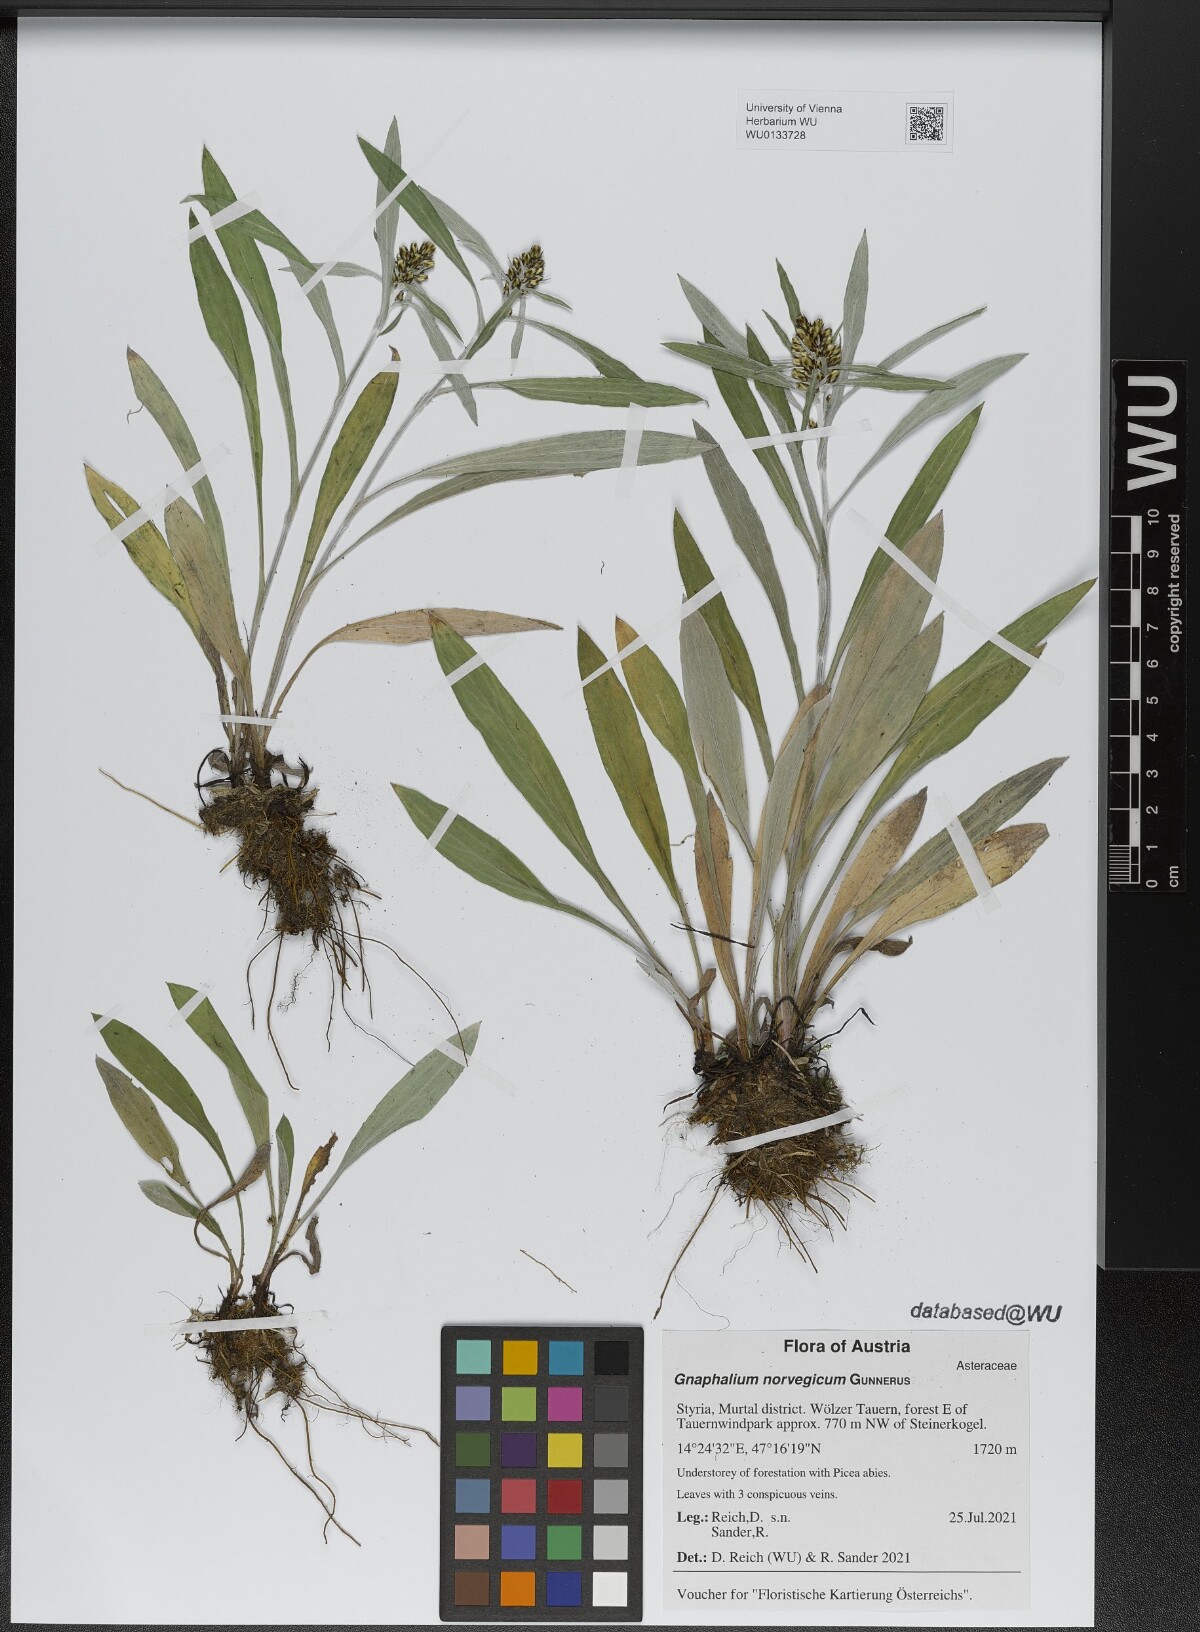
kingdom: Plantae
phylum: Tracheophyta
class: Magnoliopsida
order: Asterales
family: Asteraceae
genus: Omalotheca
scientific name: Omalotheca norvegica
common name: Norwegian arctic-cudweed
